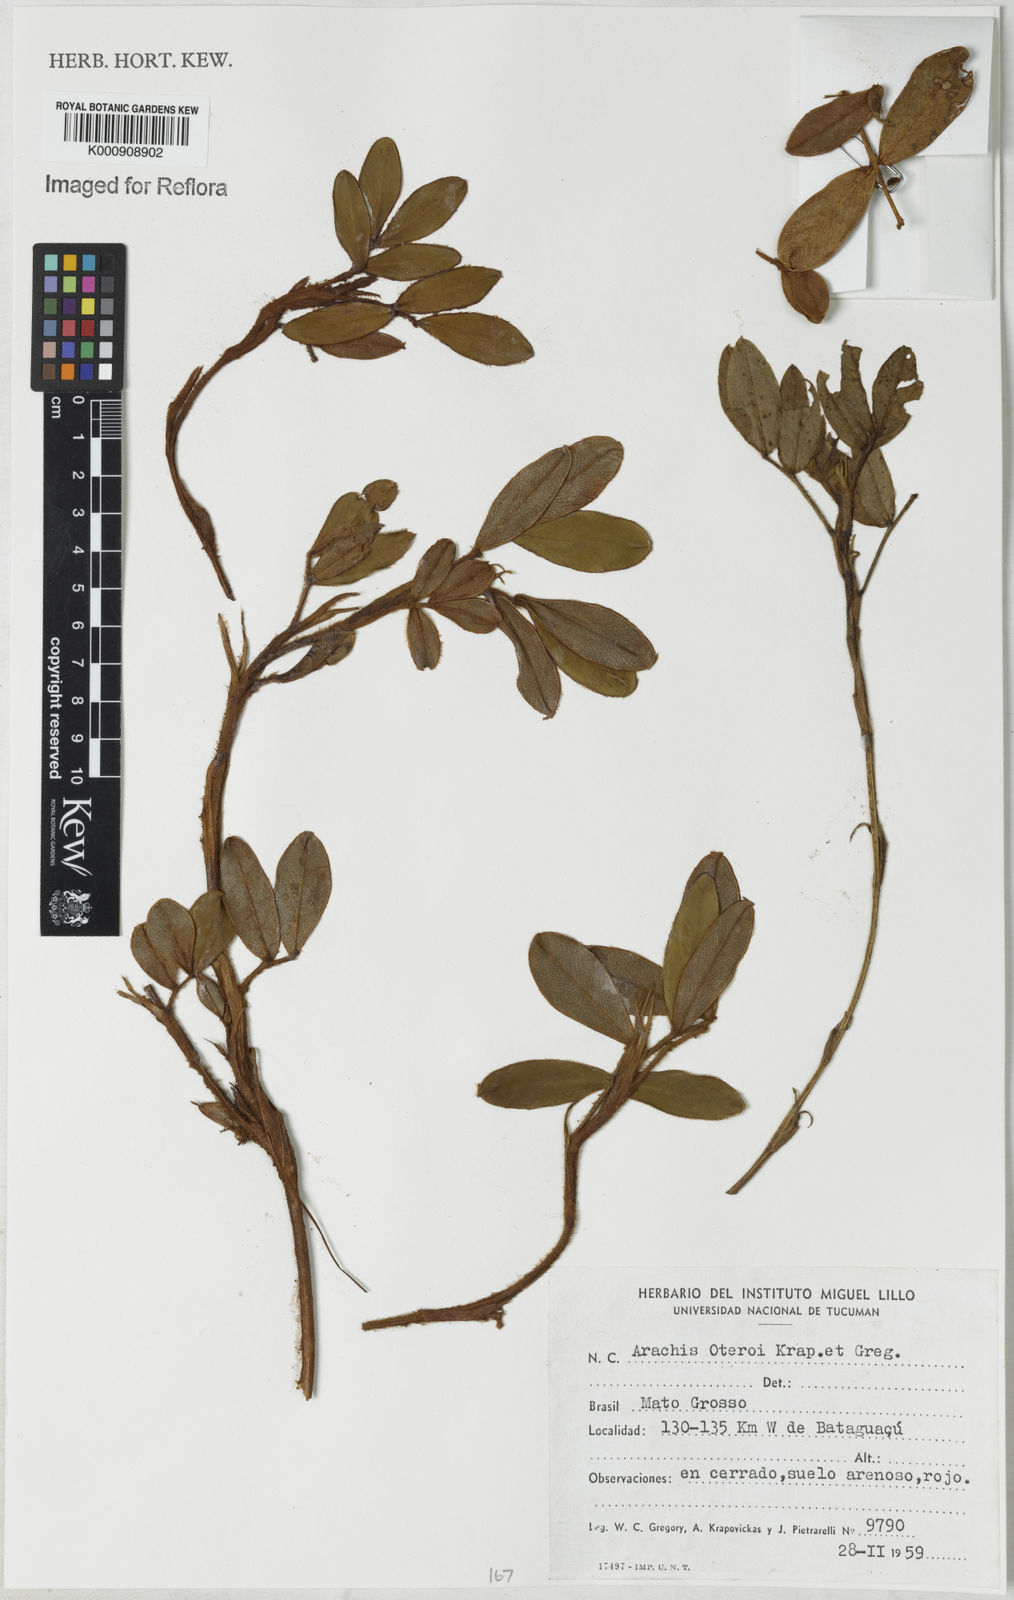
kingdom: Plantae
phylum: Tracheophyta
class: Magnoliopsida
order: Fabales
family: Fabaceae
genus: Arachis
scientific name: Arachis oteroi
